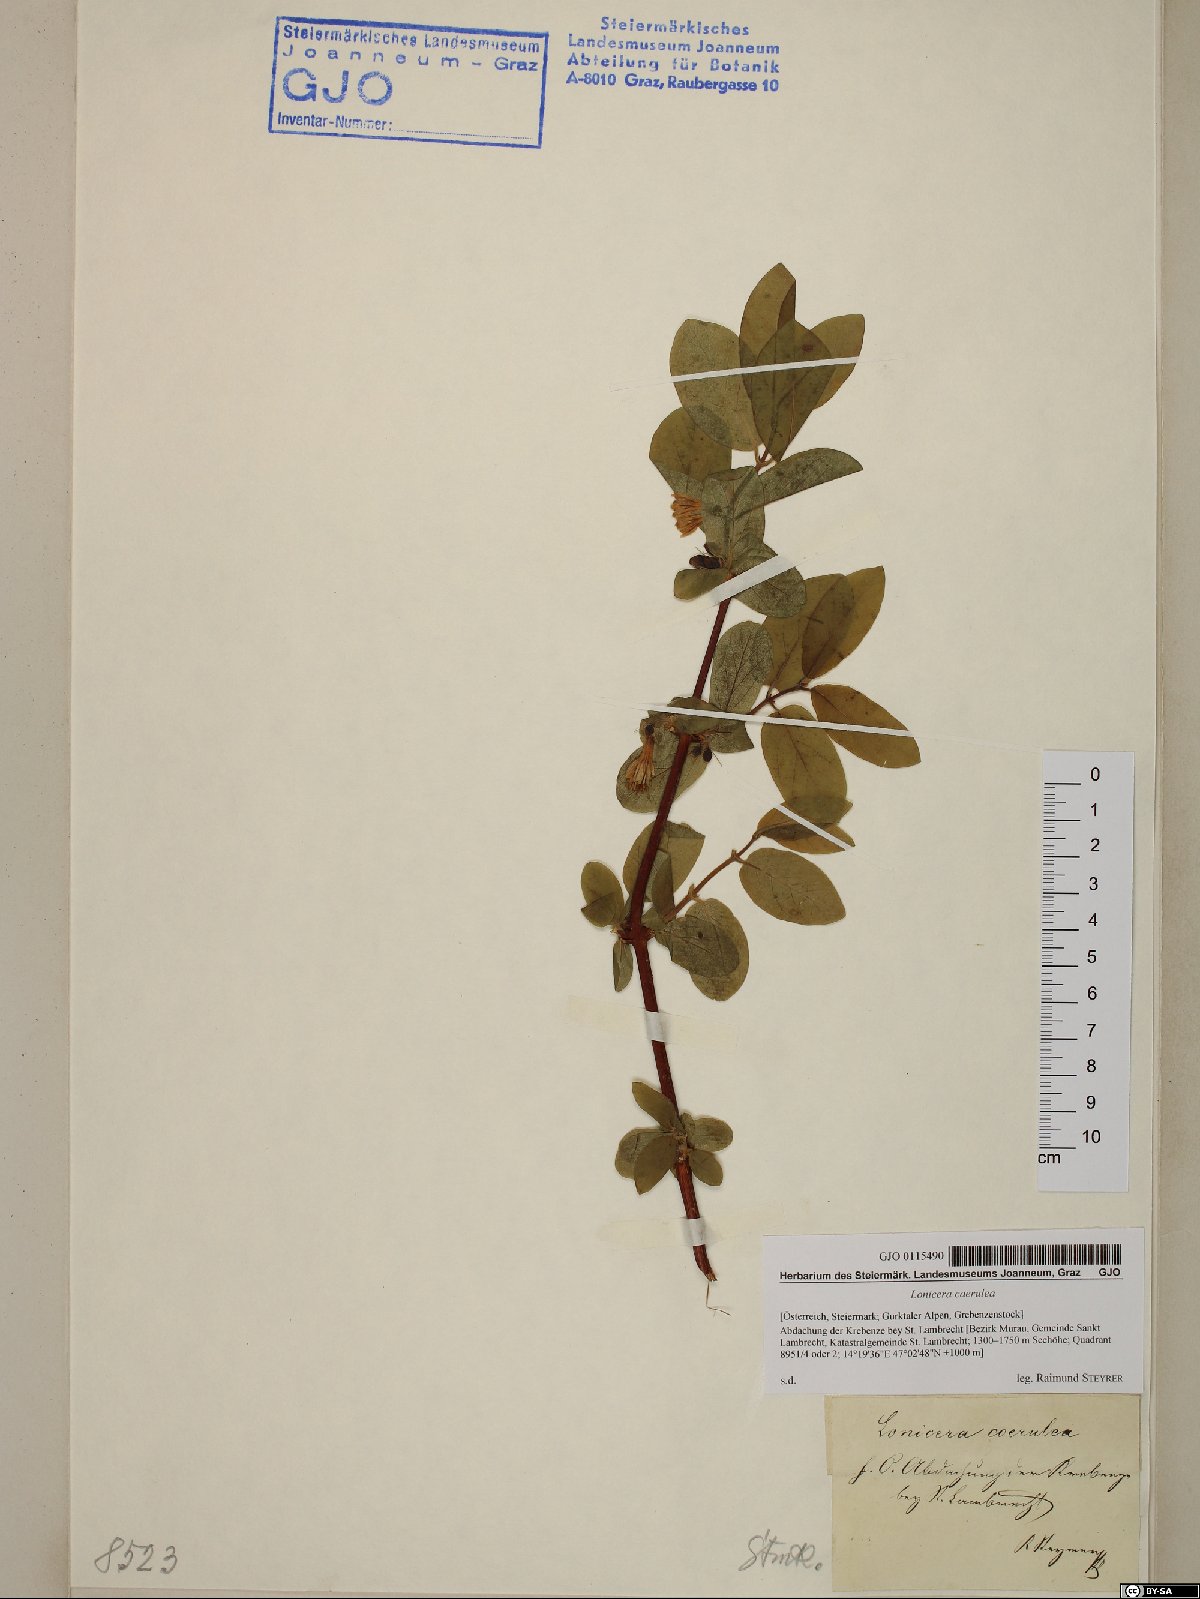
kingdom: Plantae
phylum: Tracheophyta
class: Magnoliopsida
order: Dipsacales
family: Caprifoliaceae
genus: Lonicera
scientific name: Lonicera caerulea
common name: Blue honeysuckle
